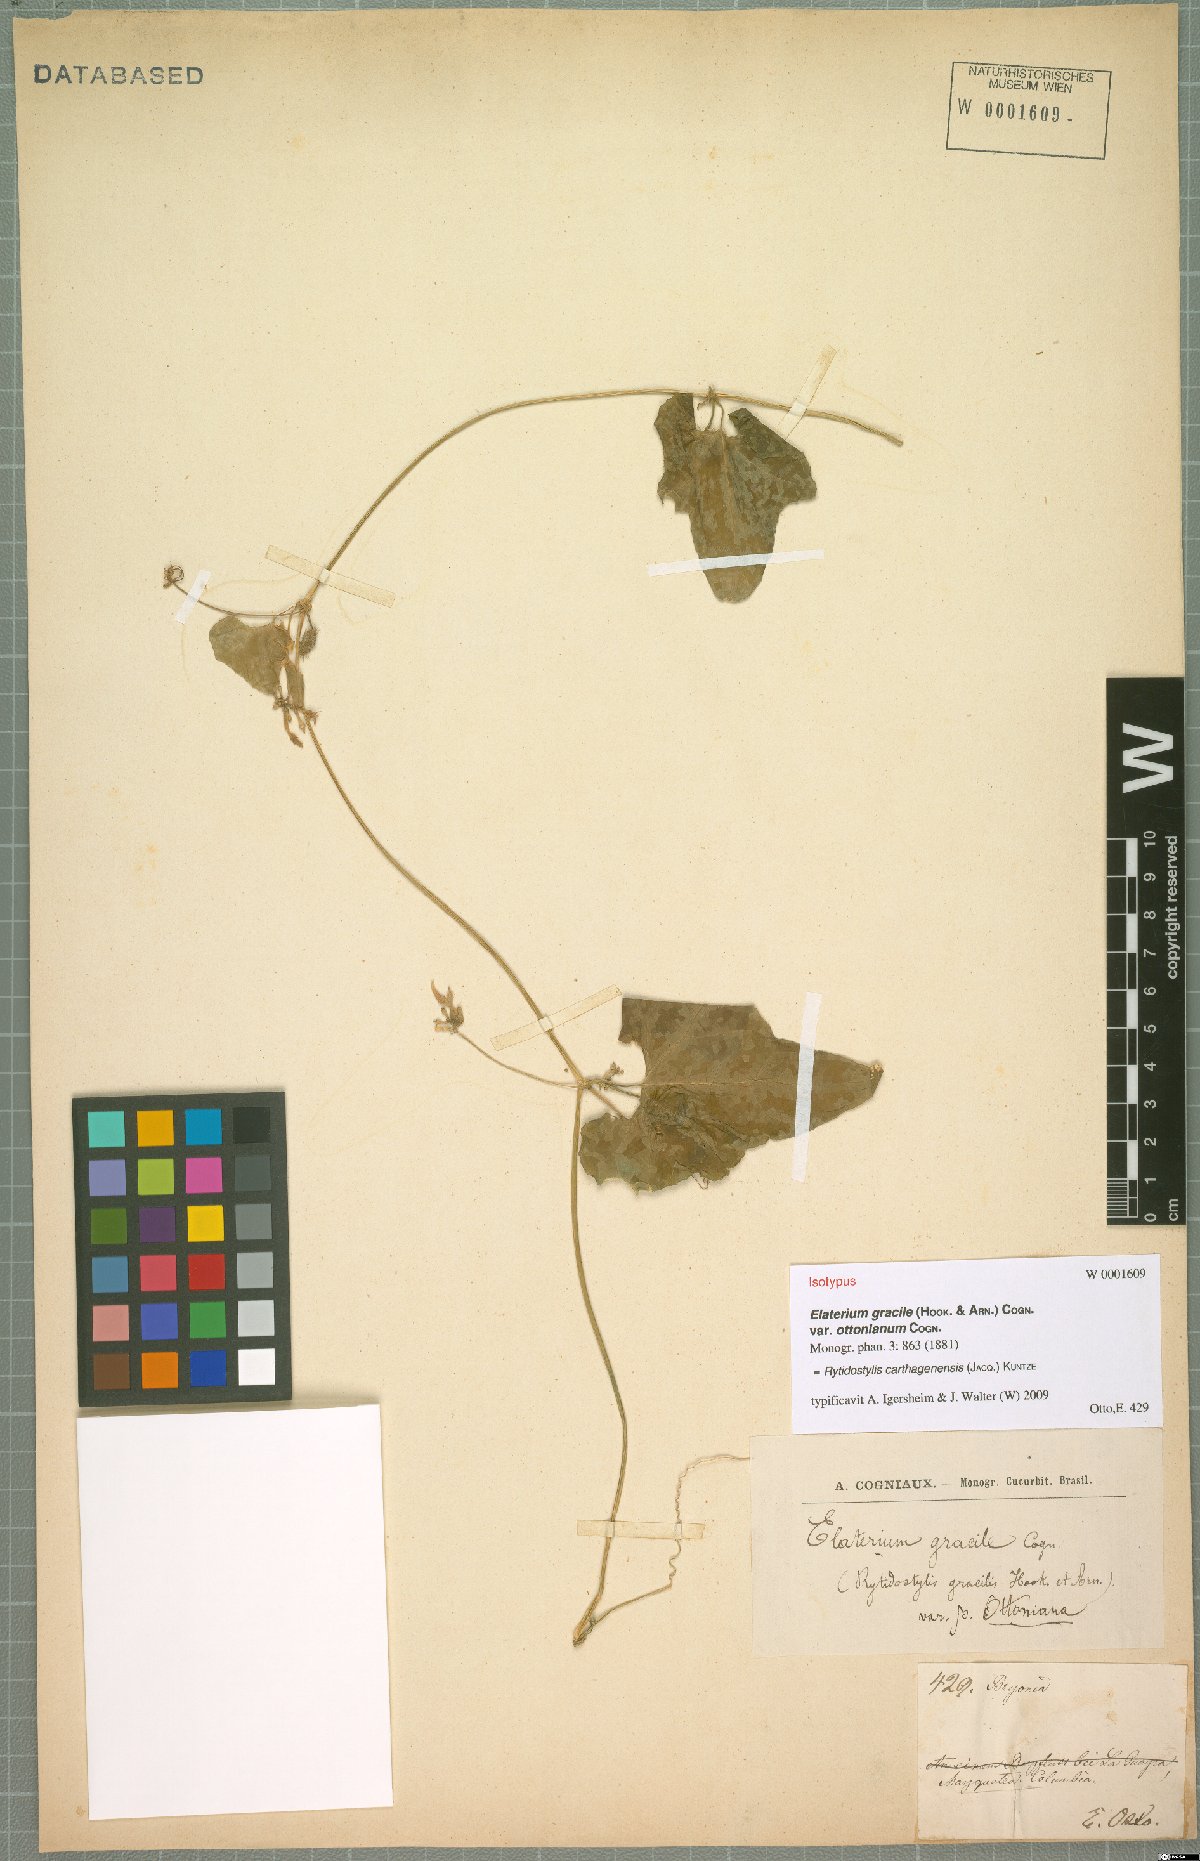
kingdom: Plantae
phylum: Tracheophyta
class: Magnoliopsida
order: Cucurbitales
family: Cucurbitaceae
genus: Cyclanthera
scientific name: Cyclanthera carthagenensis
